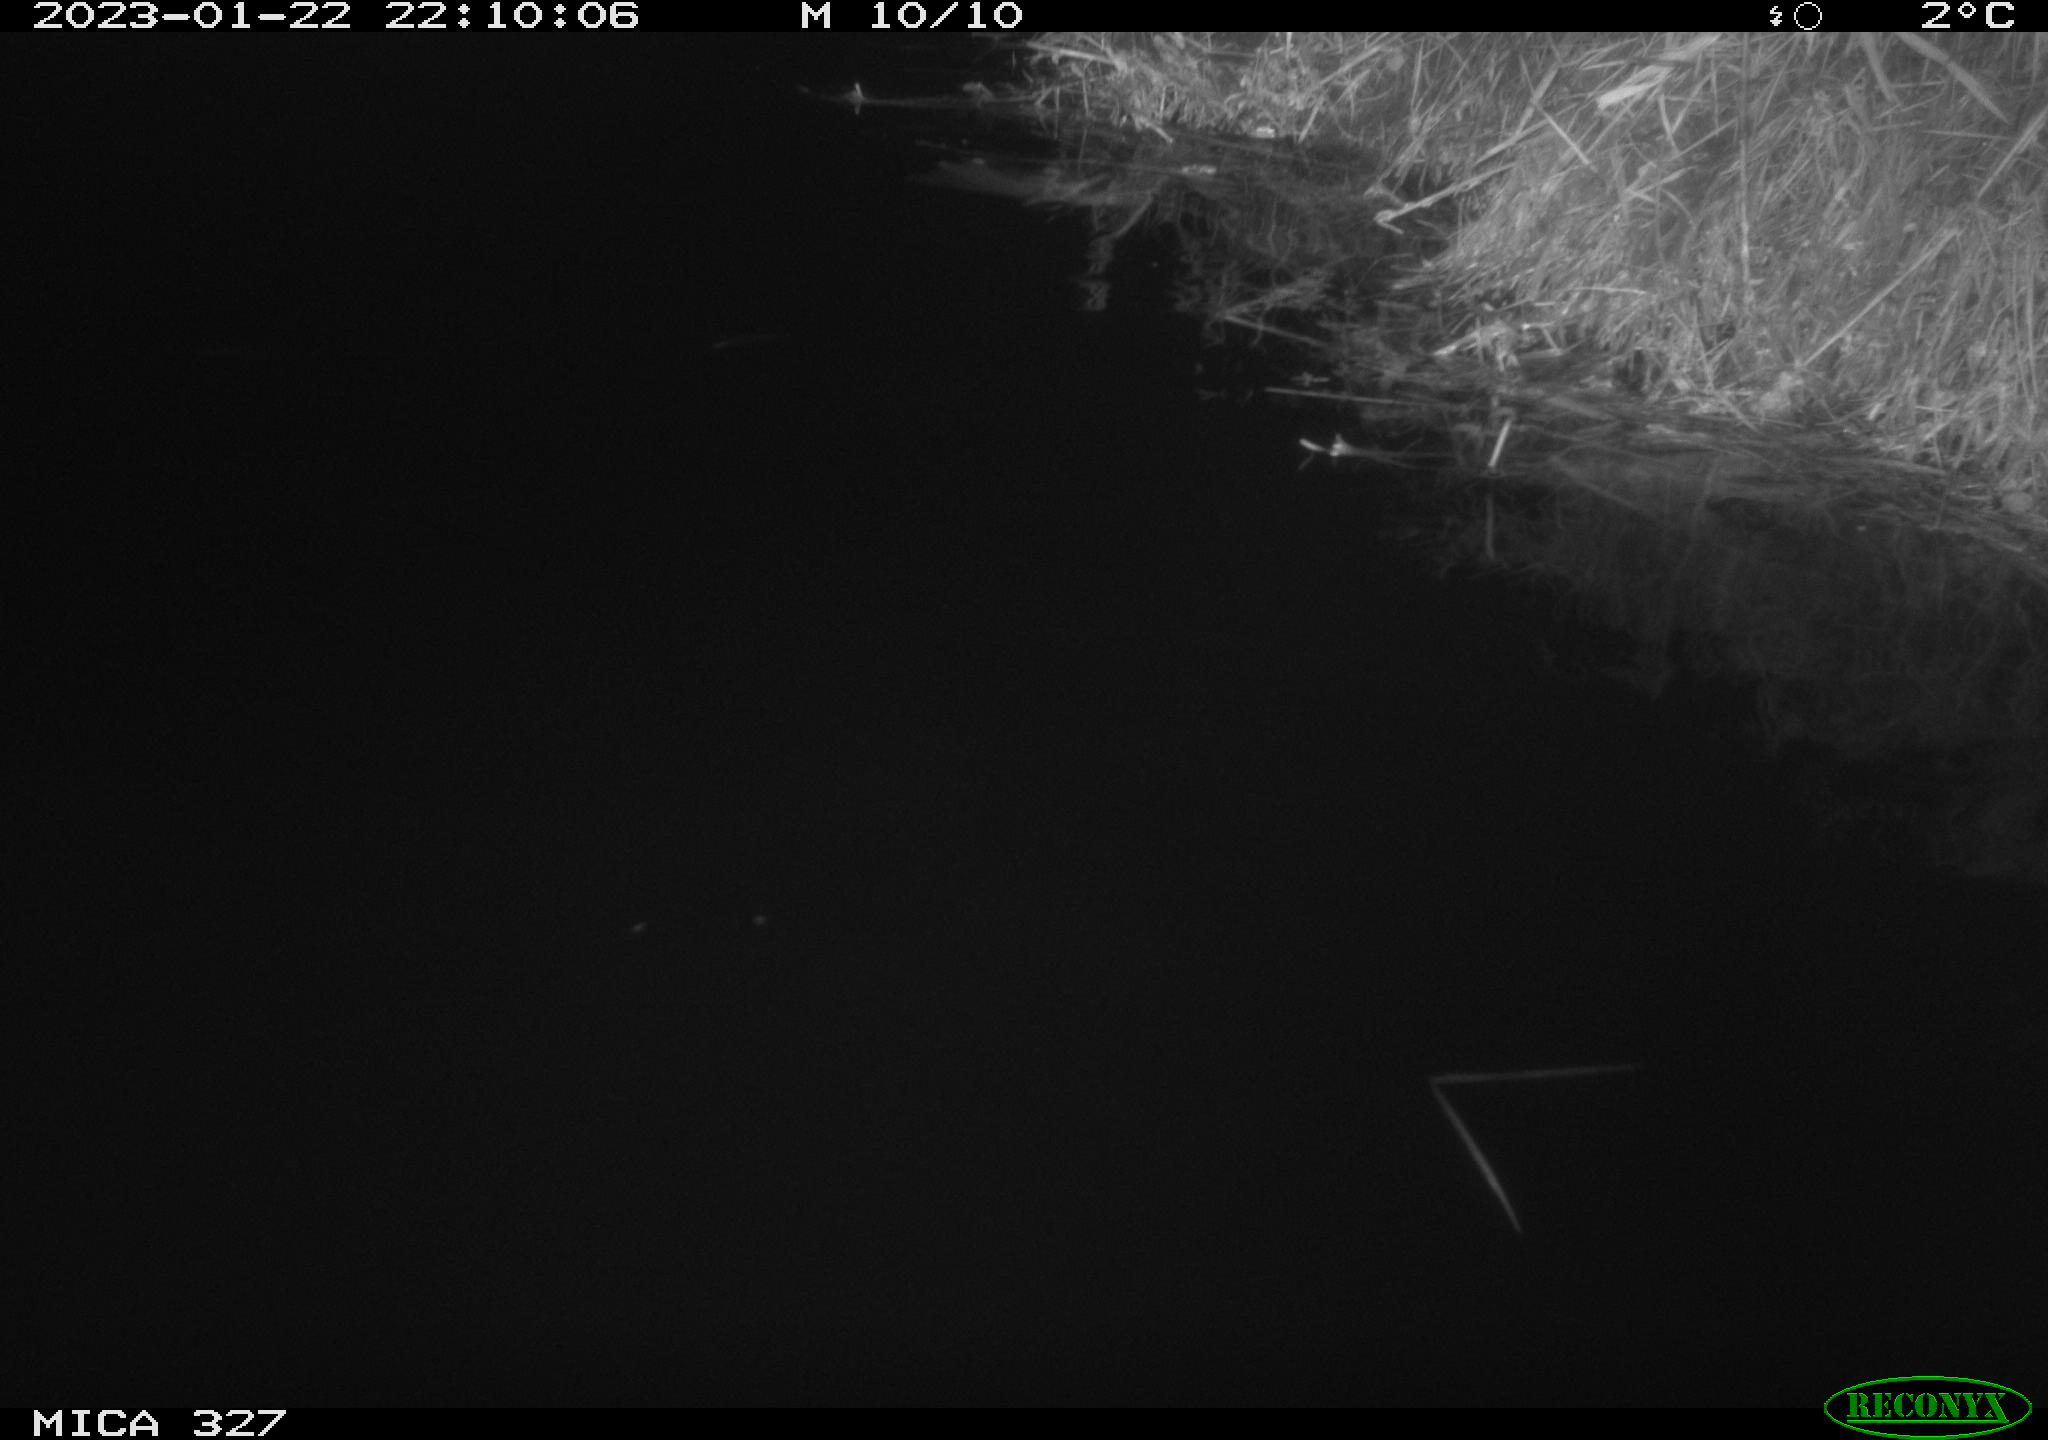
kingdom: Animalia
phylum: Chordata
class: Mammalia
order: Rodentia
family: Cricetidae
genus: Ondatra
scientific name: Ondatra zibethicus
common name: Muskrat
